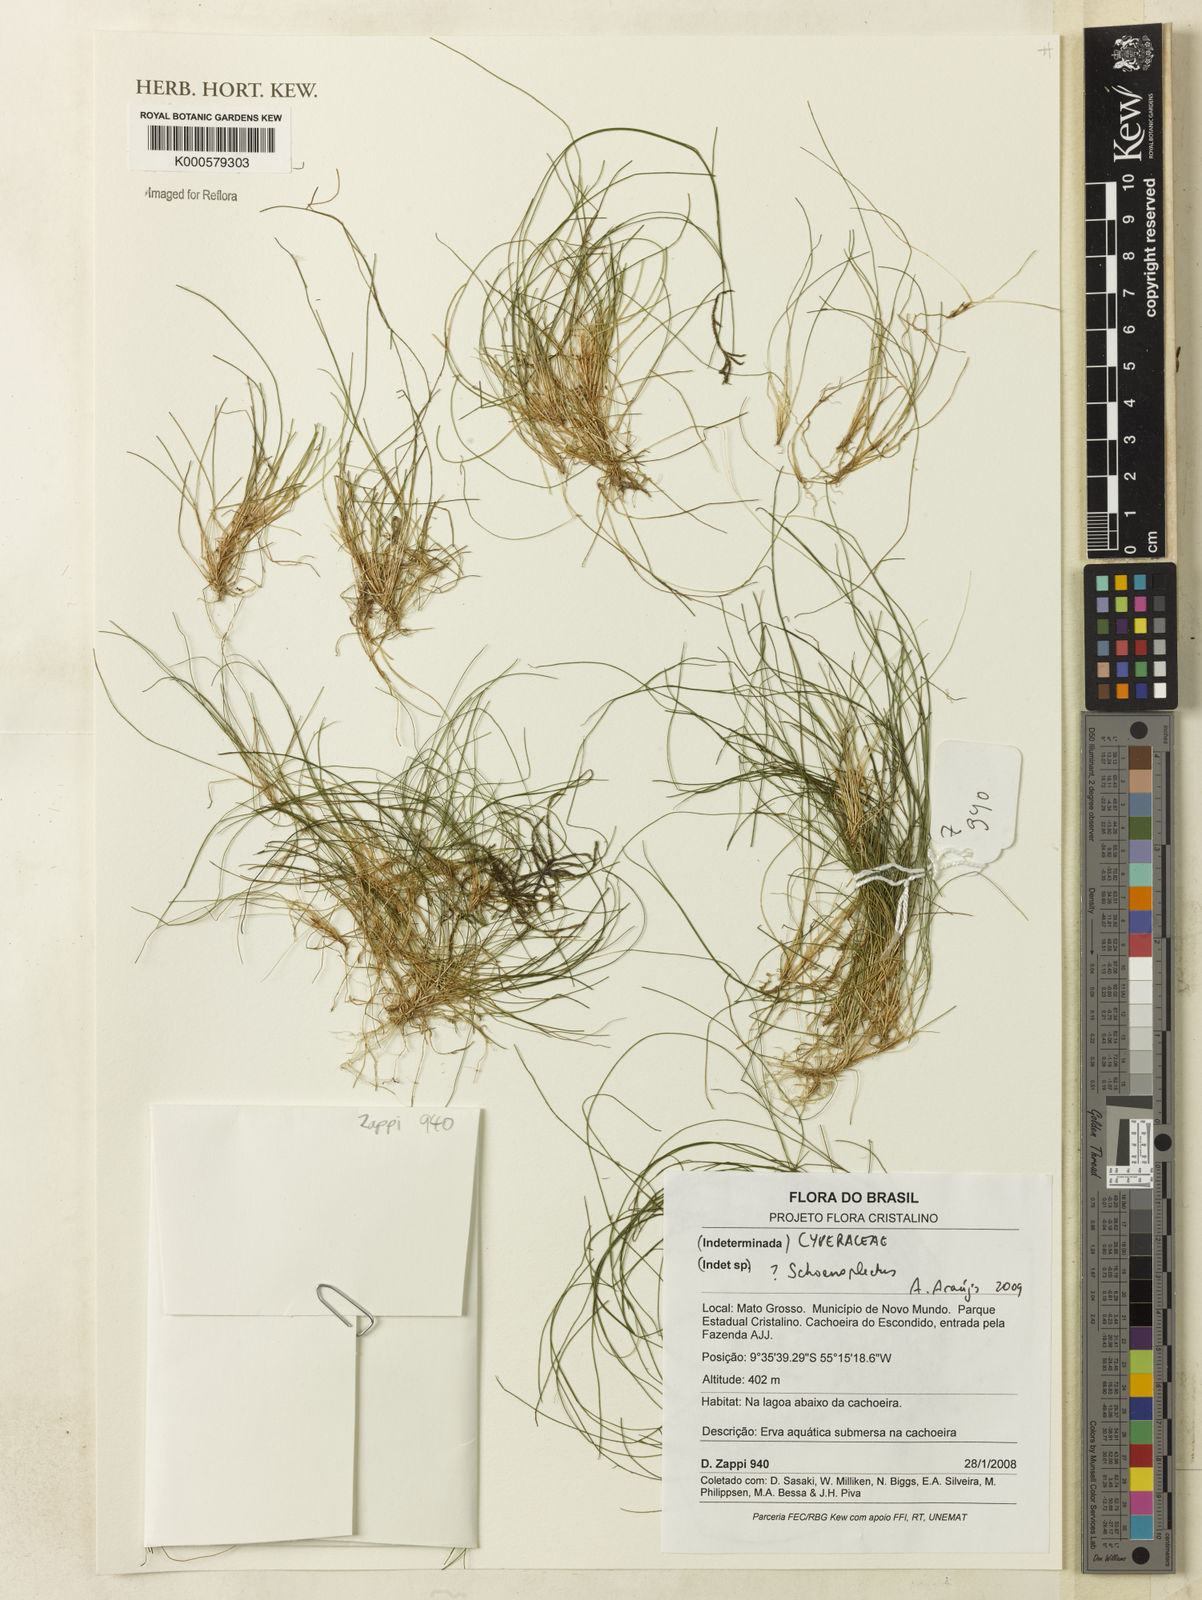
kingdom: Plantae
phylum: Tracheophyta
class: Liliopsida
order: Poales
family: Cyperaceae
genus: Schoenoplectus
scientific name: Schoenoplectus
